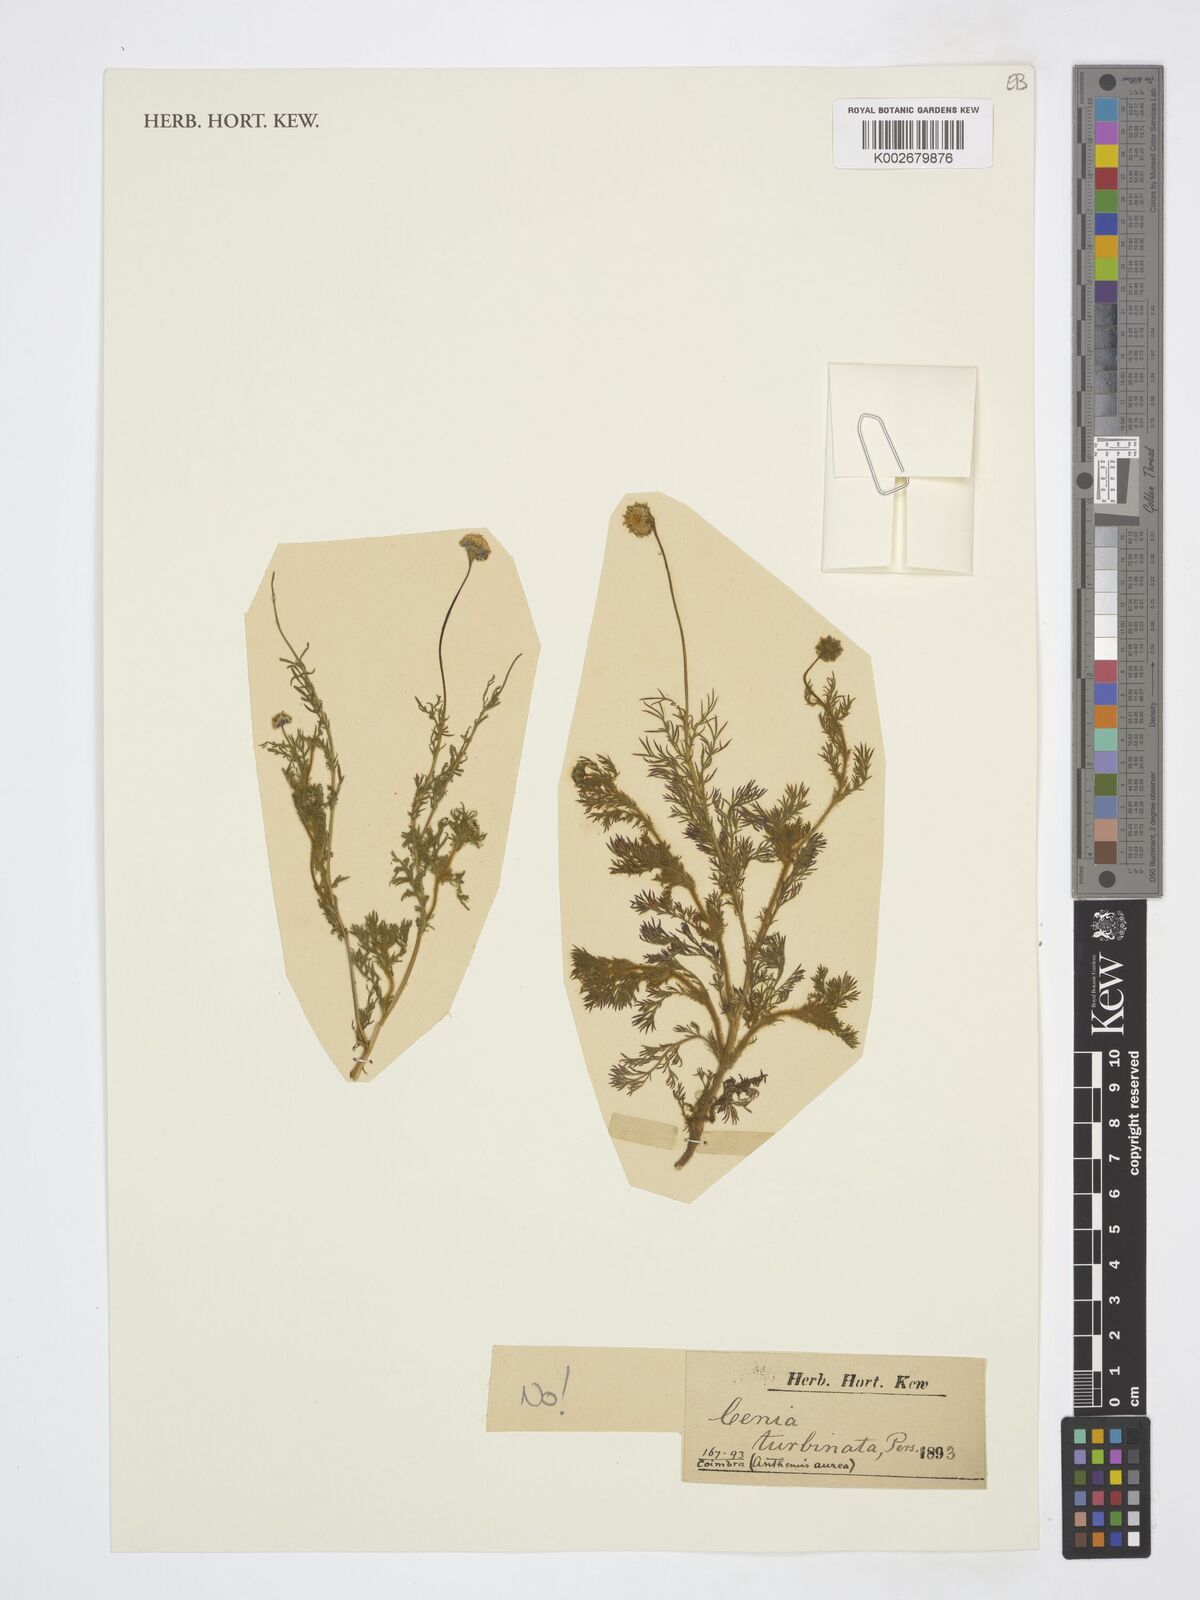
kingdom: Plantae
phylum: Tracheophyta
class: Magnoliopsida
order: Asterales
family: Asteraceae
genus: Cotula
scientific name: Cotula turbinata
